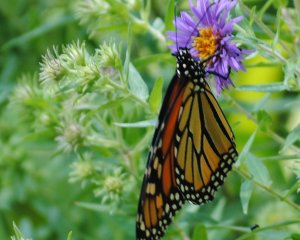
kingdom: Animalia
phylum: Arthropoda
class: Insecta
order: Lepidoptera
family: Nymphalidae
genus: Danaus
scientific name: Danaus plexippus
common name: Monarch
